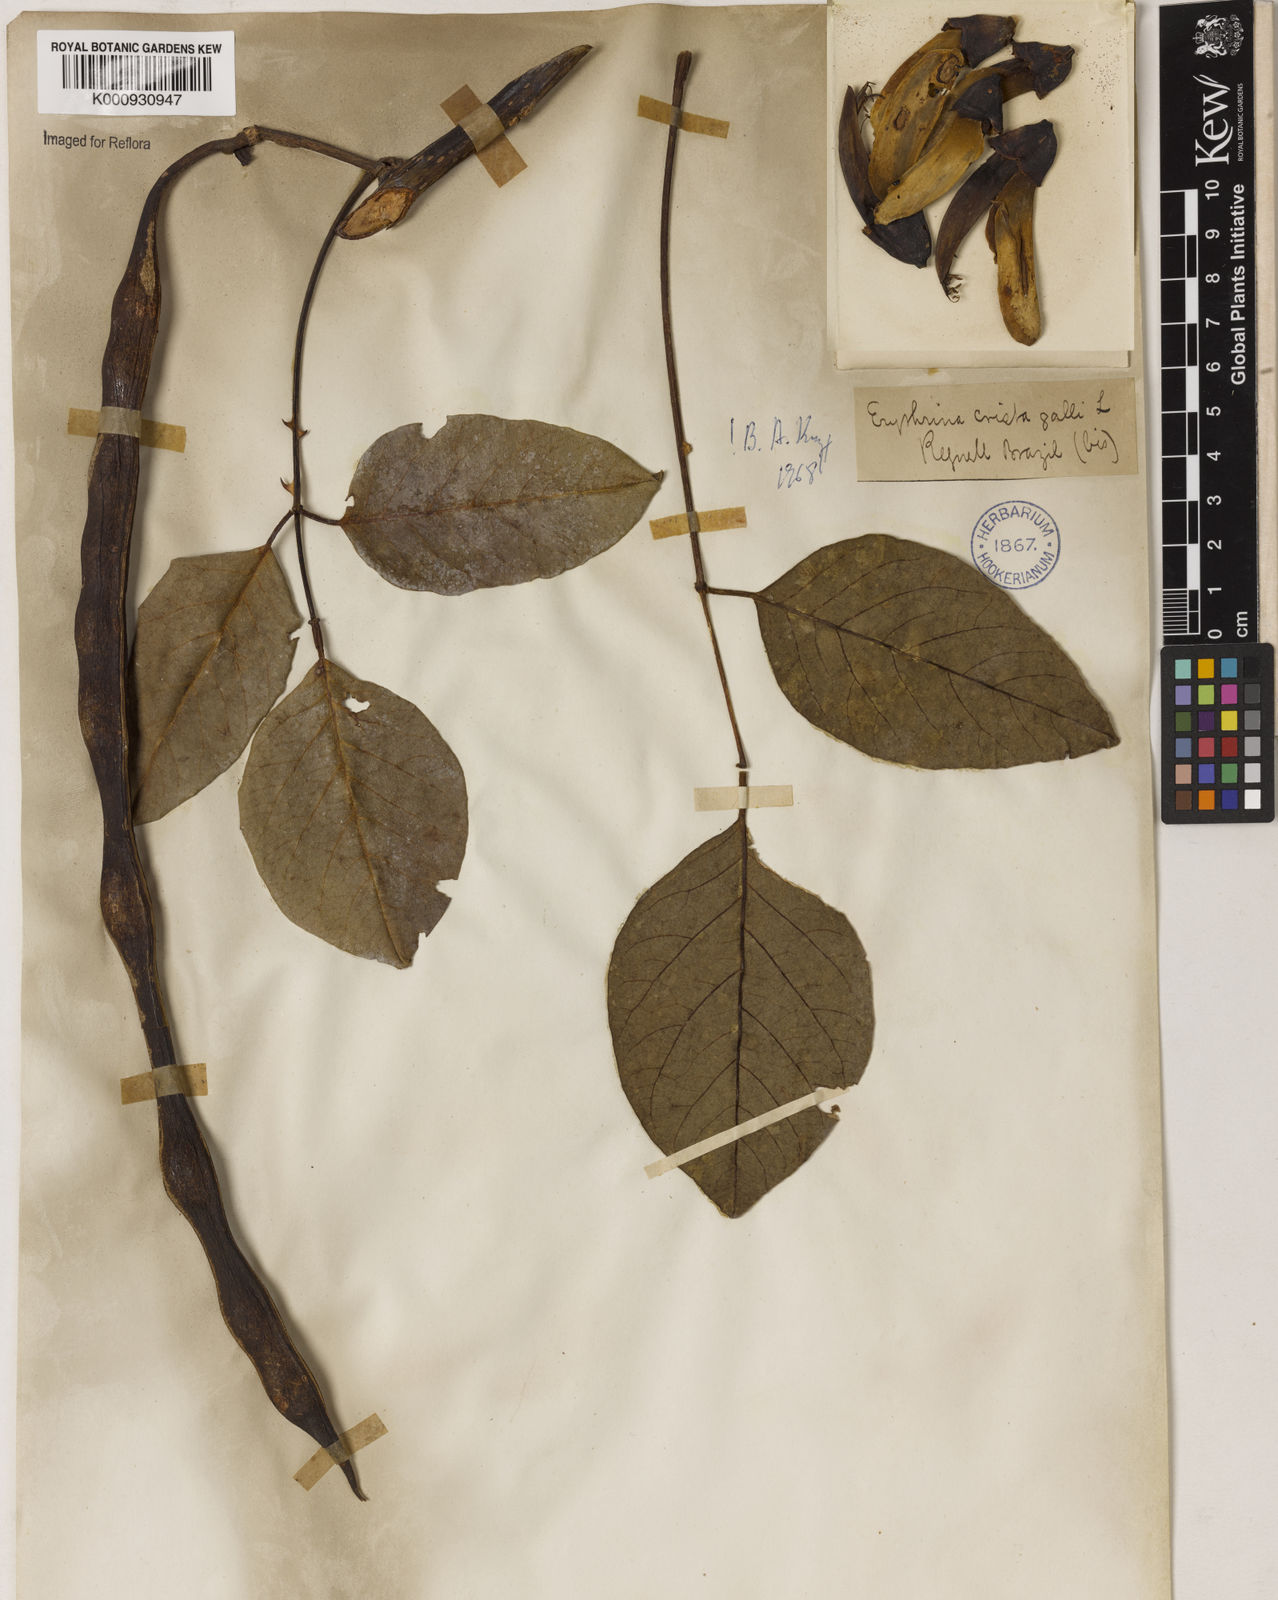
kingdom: Plantae
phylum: Tracheophyta
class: Magnoliopsida
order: Fabales
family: Fabaceae
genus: Erythrina
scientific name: Erythrina crista-galli
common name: Cockspur coral tree
